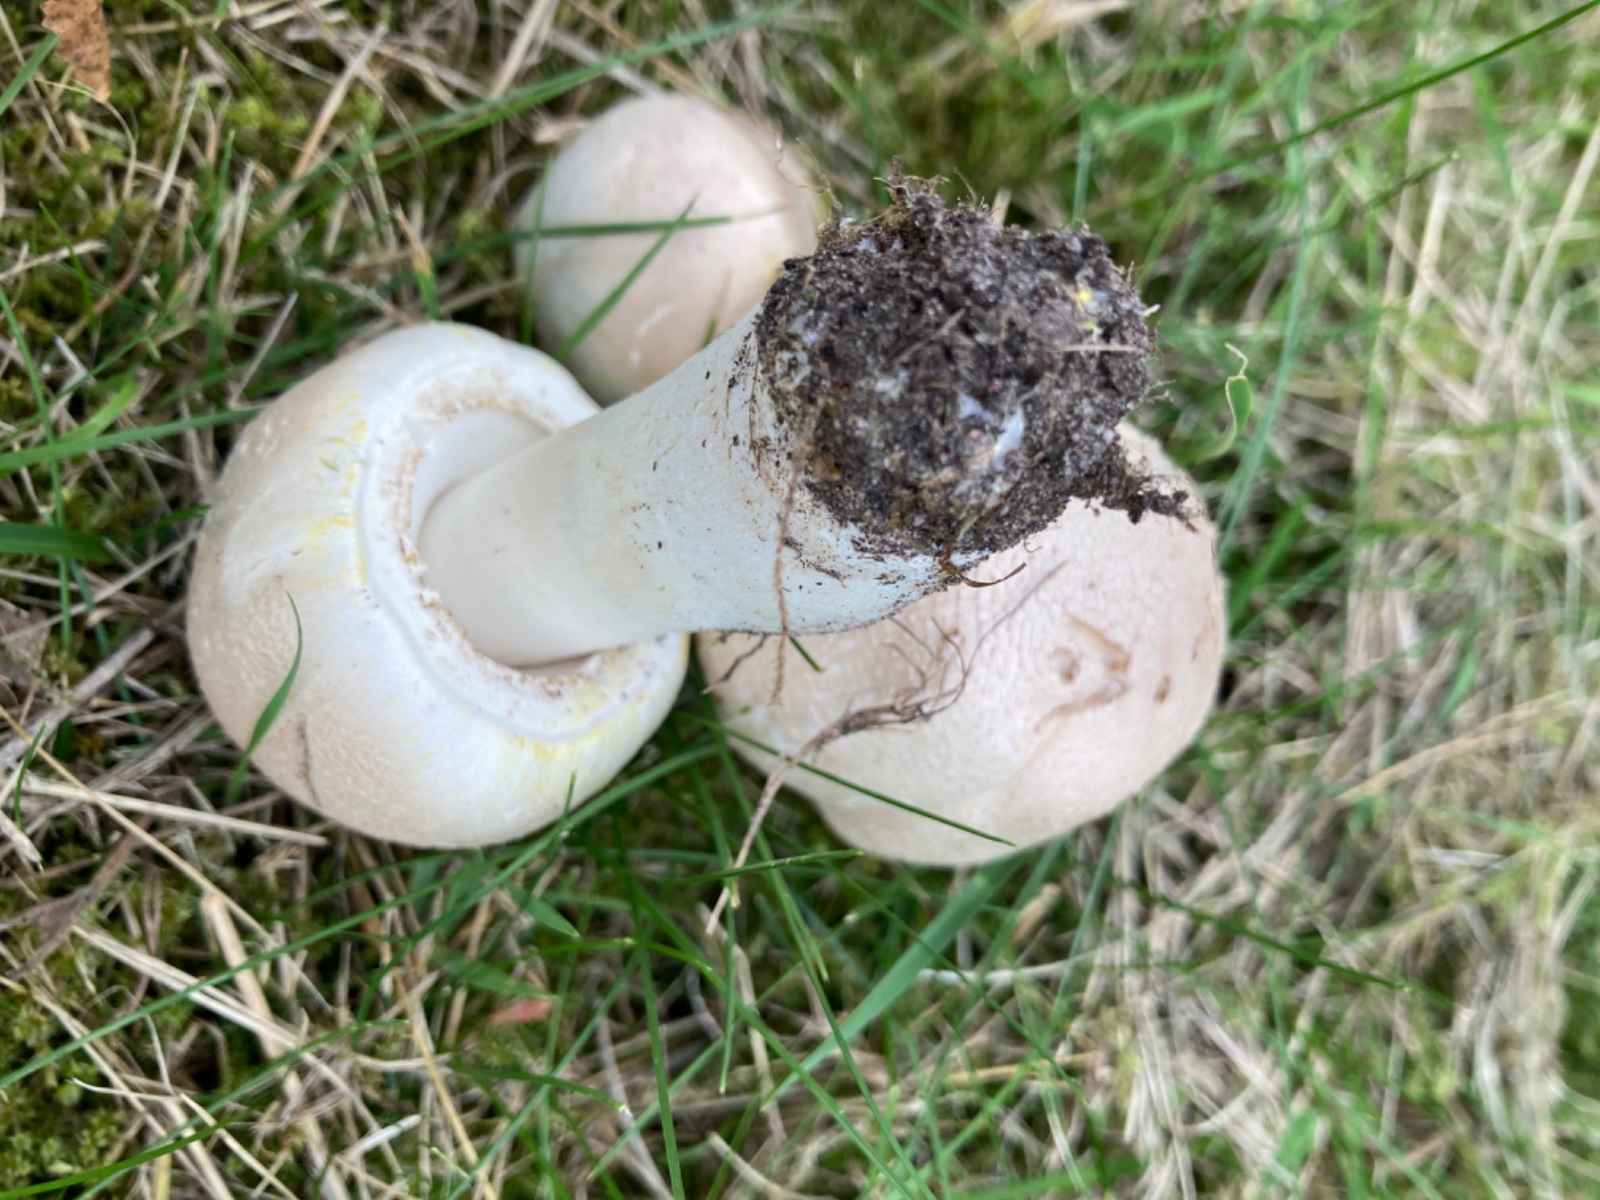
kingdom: Fungi
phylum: Basidiomycota
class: Agaricomycetes
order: Agaricales
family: Agaricaceae
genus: Agaricus
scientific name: Agaricus xanthodermus
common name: karbol-champignon
